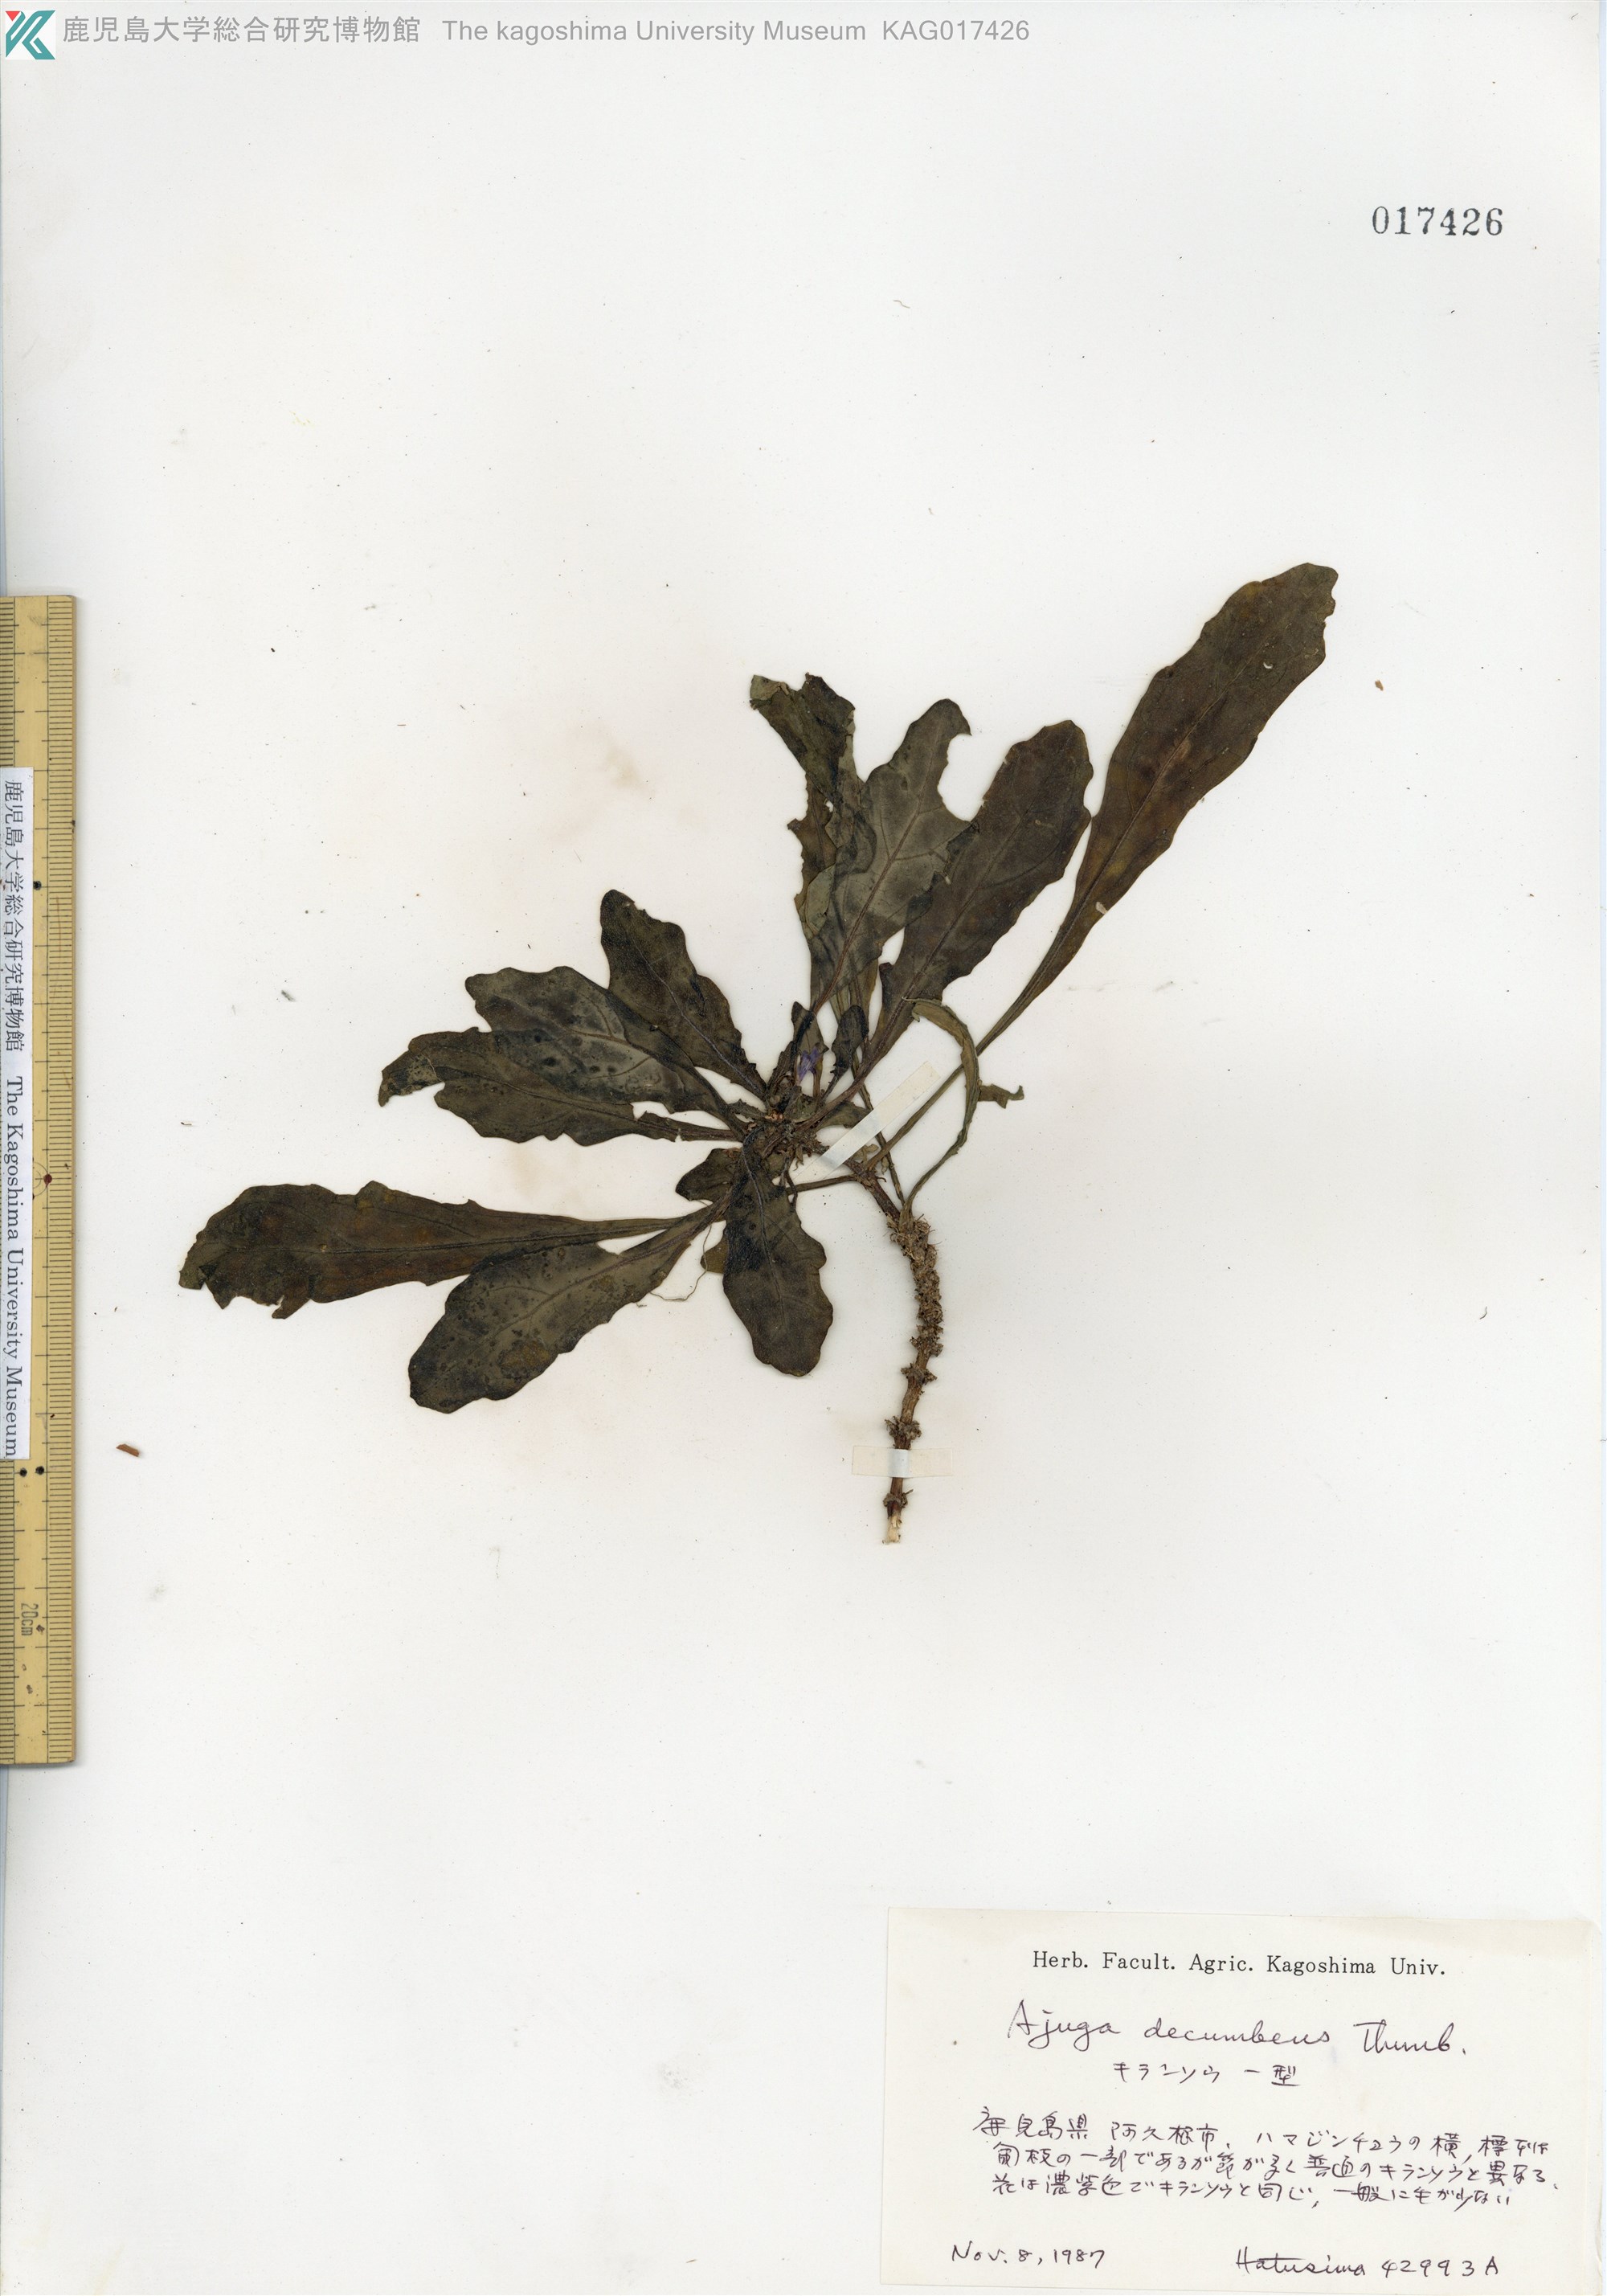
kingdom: Plantae
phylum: Tracheophyta
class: Magnoliopsida
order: Lamiales
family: Lamiaceae
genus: Ajuga
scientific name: Ajuga decumbens
